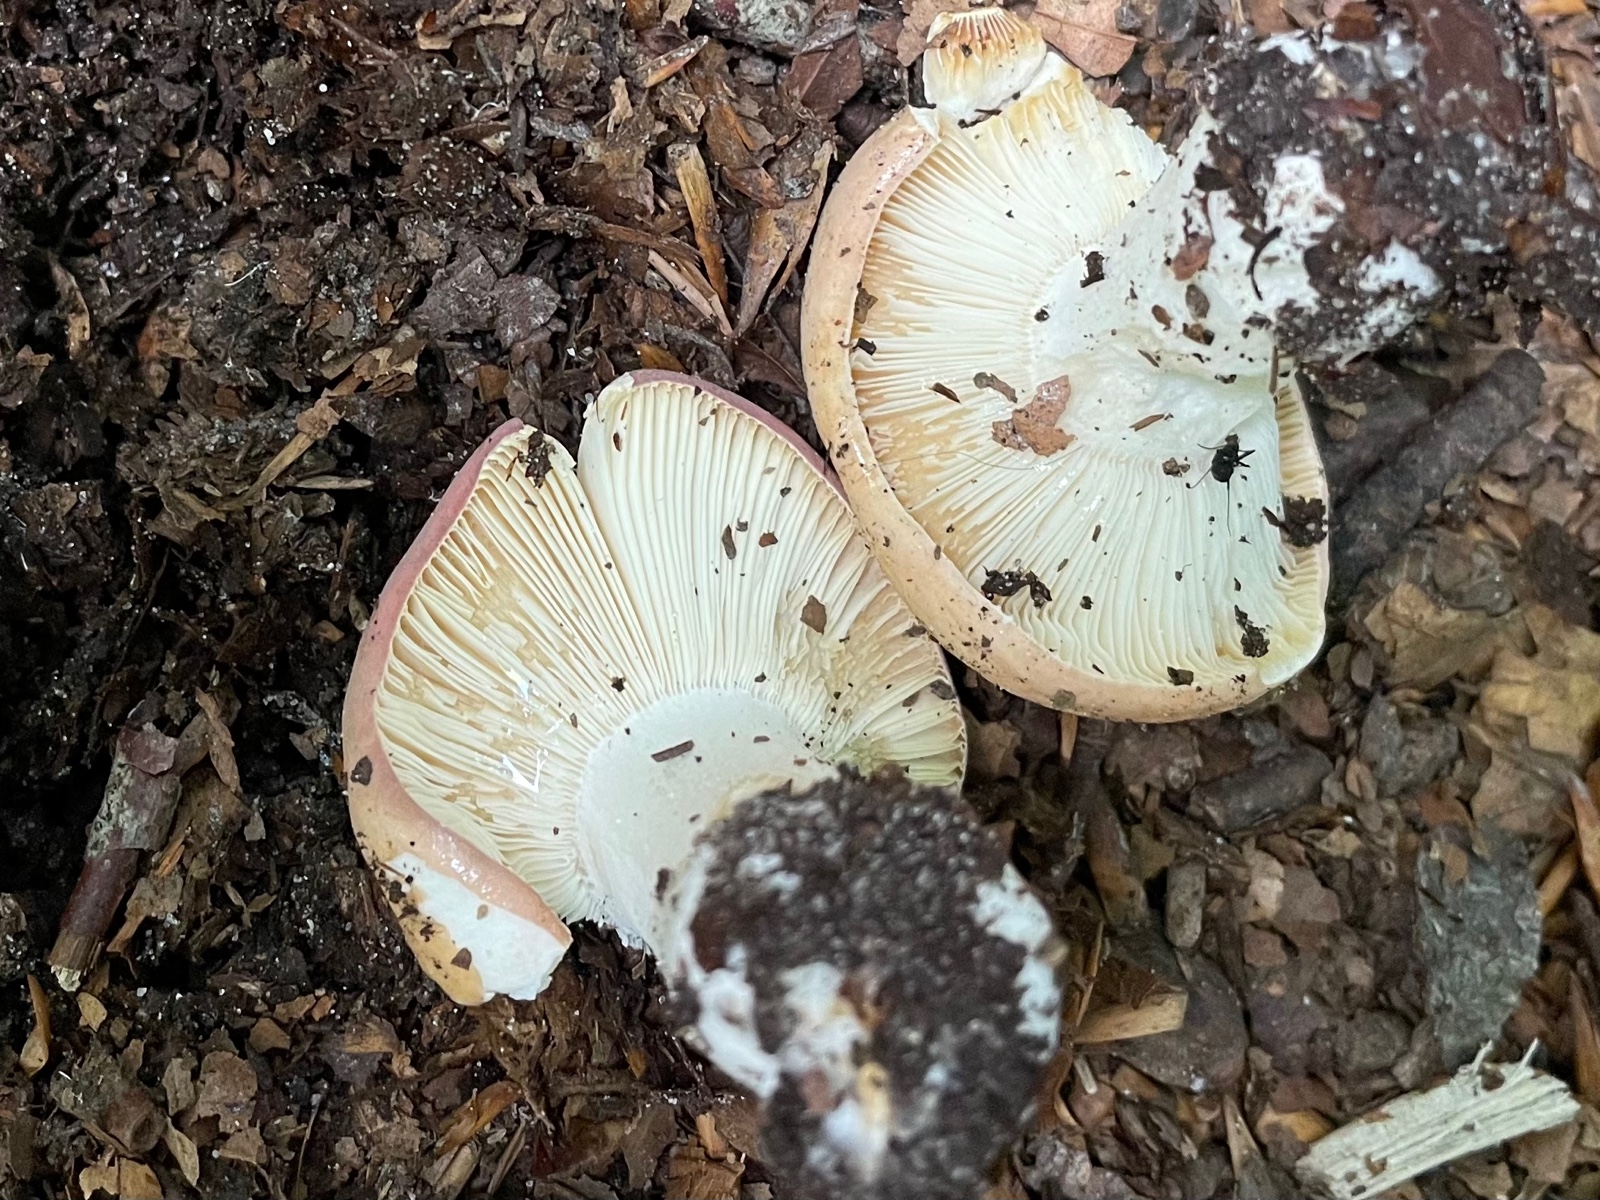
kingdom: Fungi
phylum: Basidiomycota
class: Agaricomycetes
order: Russulales
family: Russulaceae
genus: Russula
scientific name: Russula
